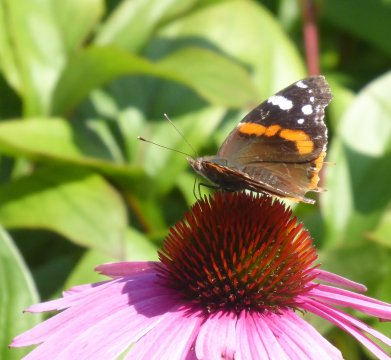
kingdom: Animalia
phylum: Arthropoda
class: Insecta
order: Lepidoptera
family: Nymphalidae
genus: Vanessa
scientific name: Vanessa atalanta
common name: Red Admiral
